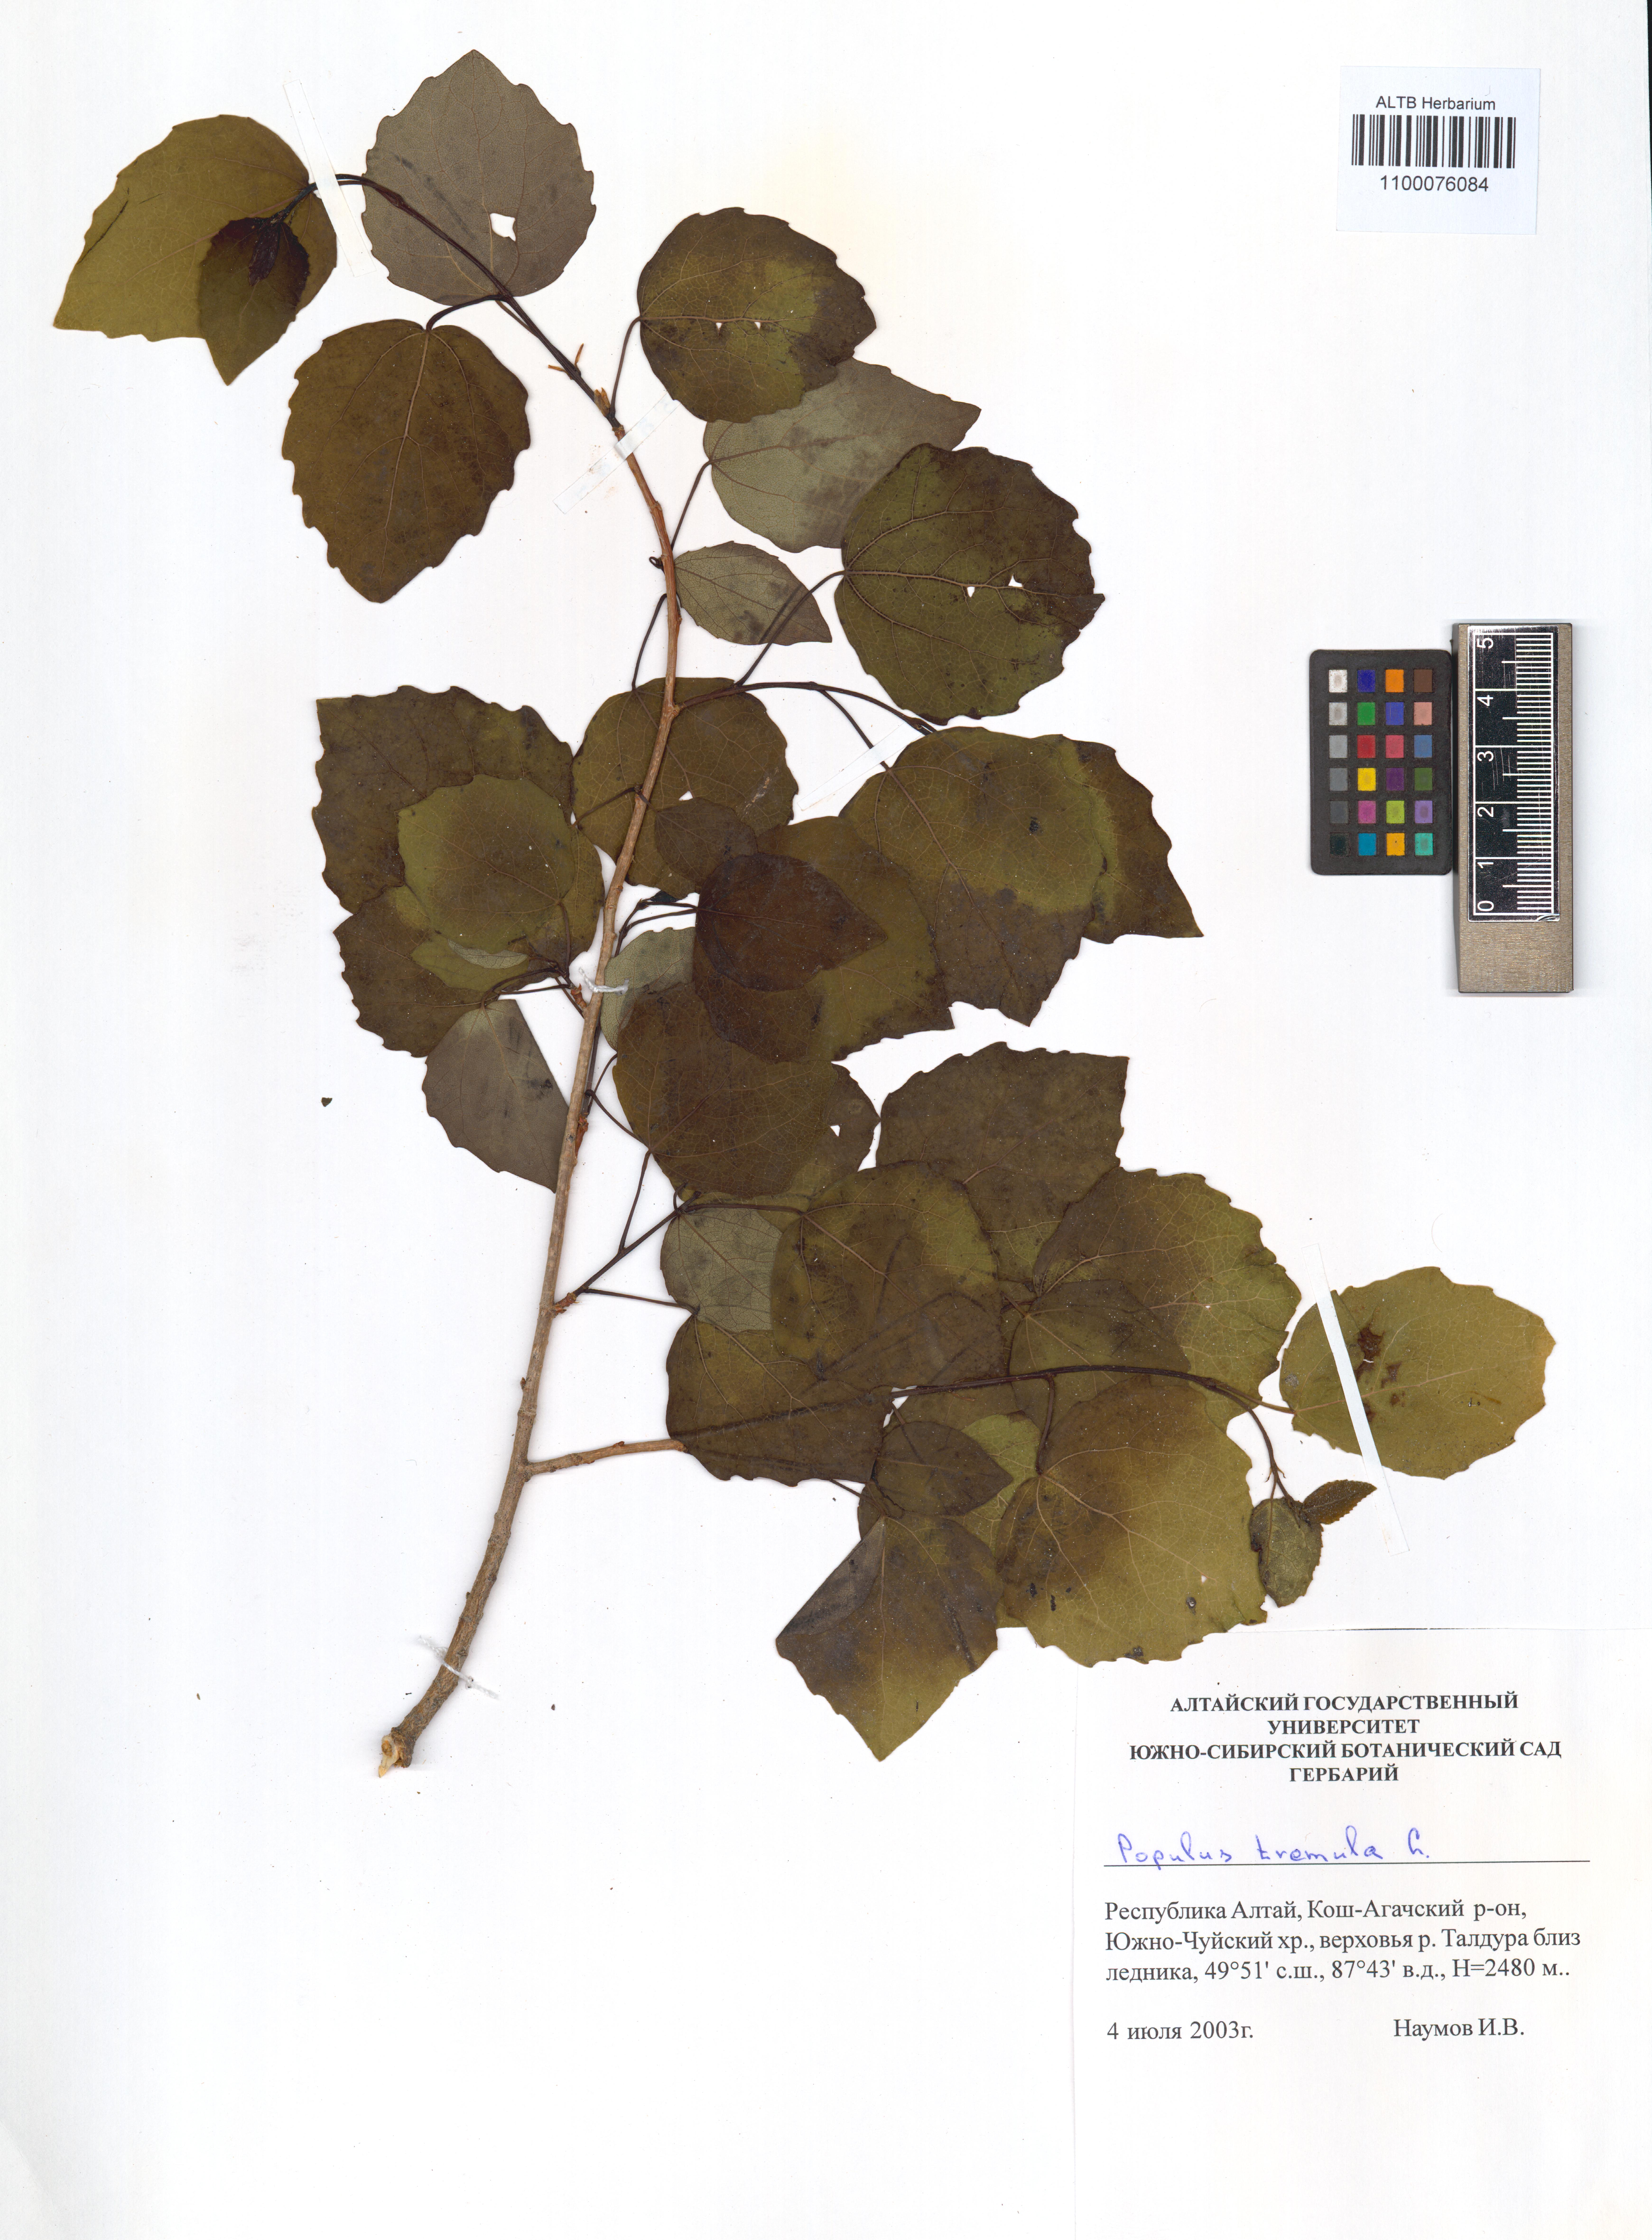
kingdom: Plantae
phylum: Tracheophyta
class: Magnoliopsida
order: Malpighiales
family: Salicaceae
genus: Populus
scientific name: Populus tremula
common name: European aspen
